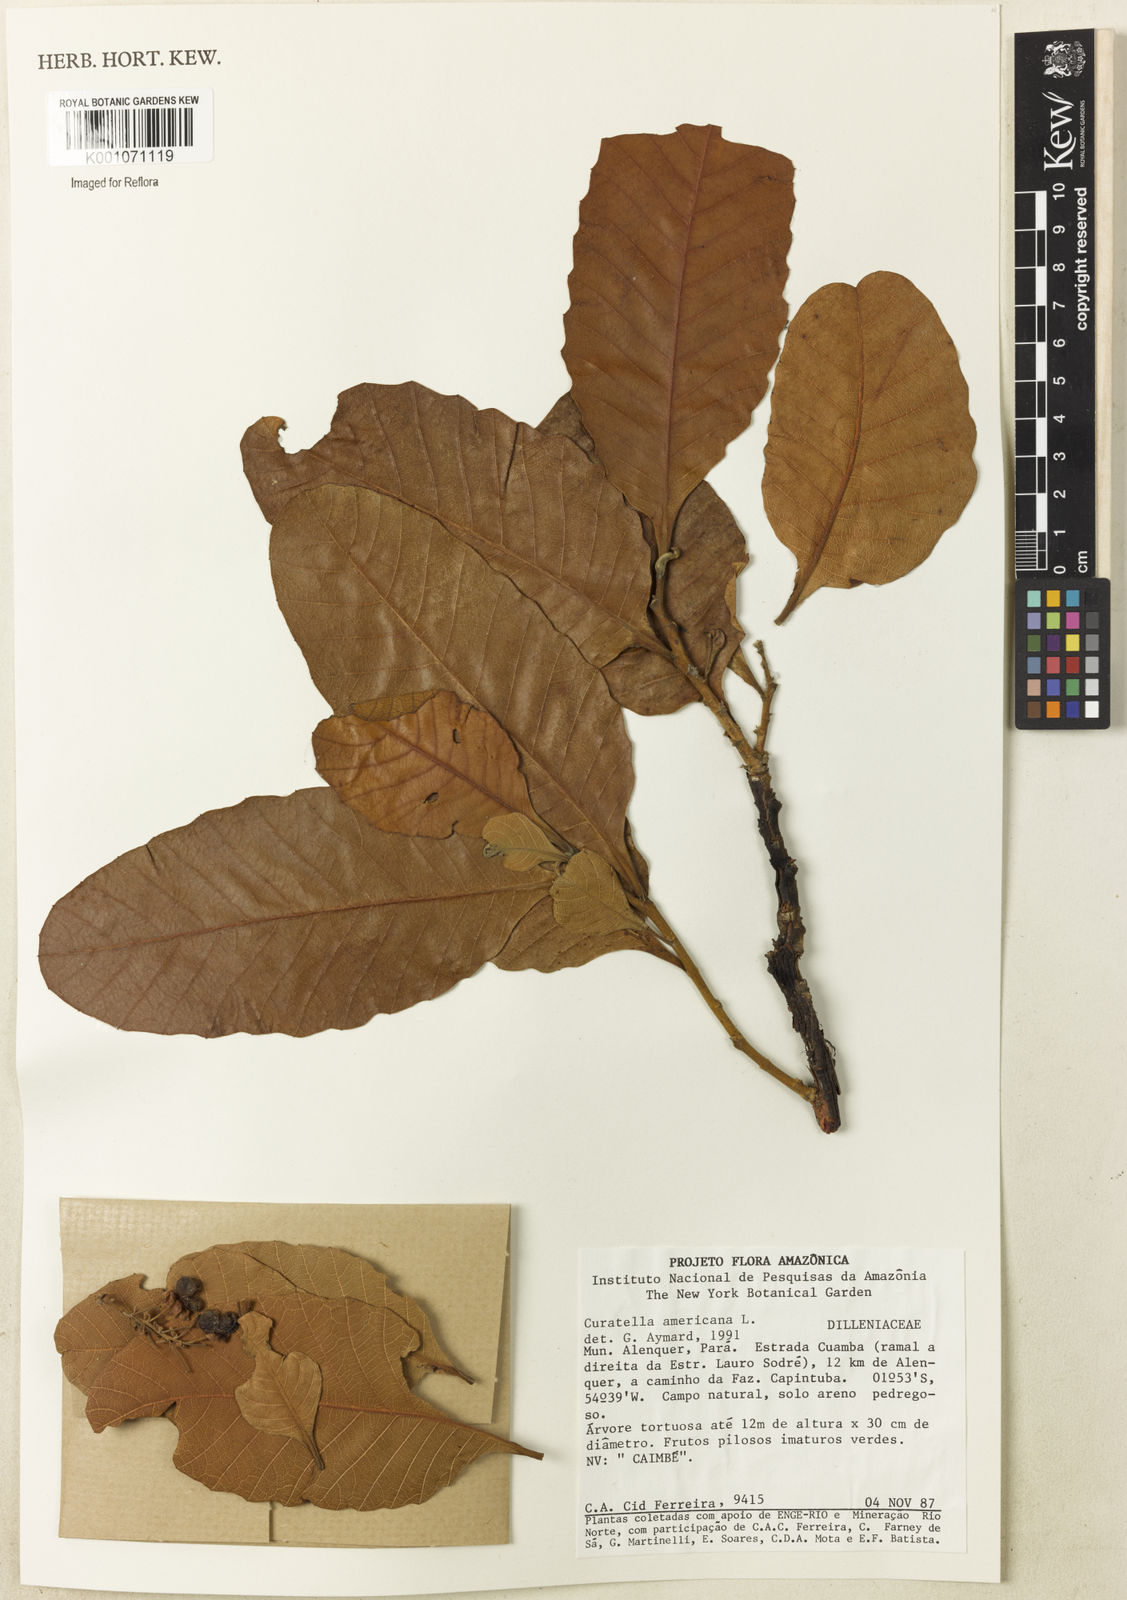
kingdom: Plantae
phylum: Tracheophyta
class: Magnoliopsida
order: Dilleniales
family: Dilleniaceae
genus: Curatella
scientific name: Curatella americana
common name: Sandpaper tree
